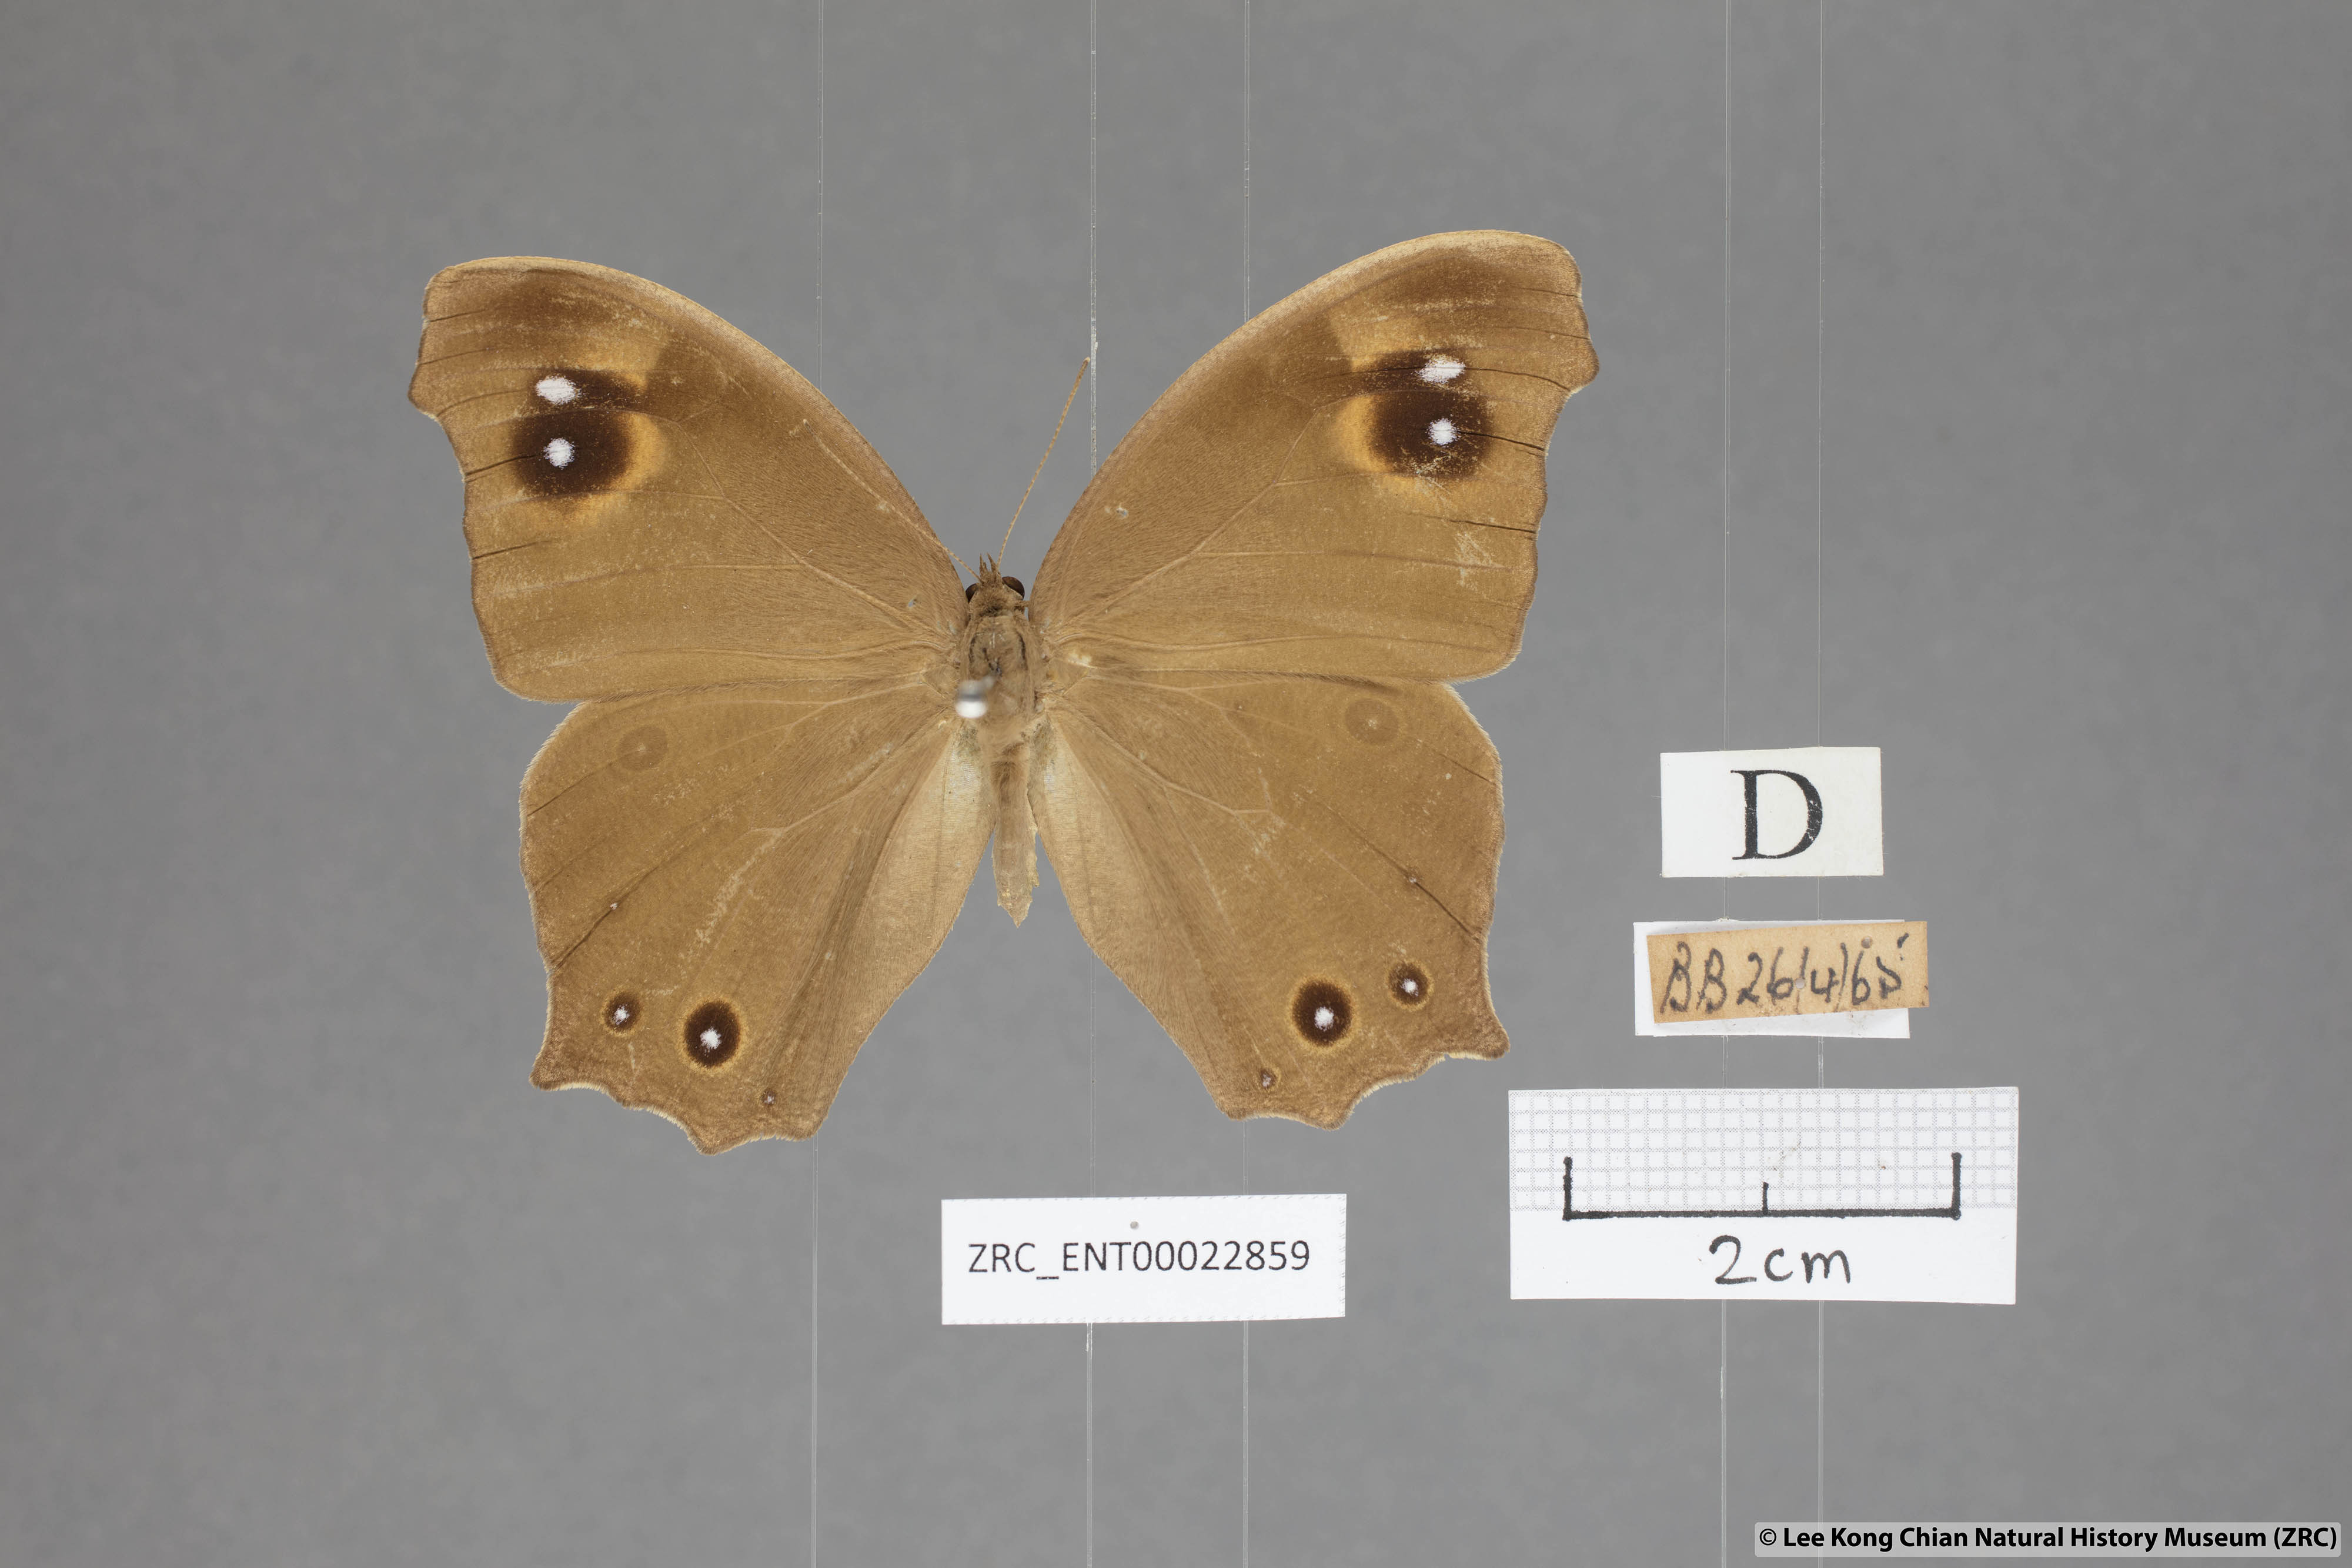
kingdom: Animalia
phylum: Arthropoda
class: Insecta
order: Lepidoptera
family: Nymphalidae
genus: Melanitis
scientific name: Melanitis leda
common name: Twilight brown
